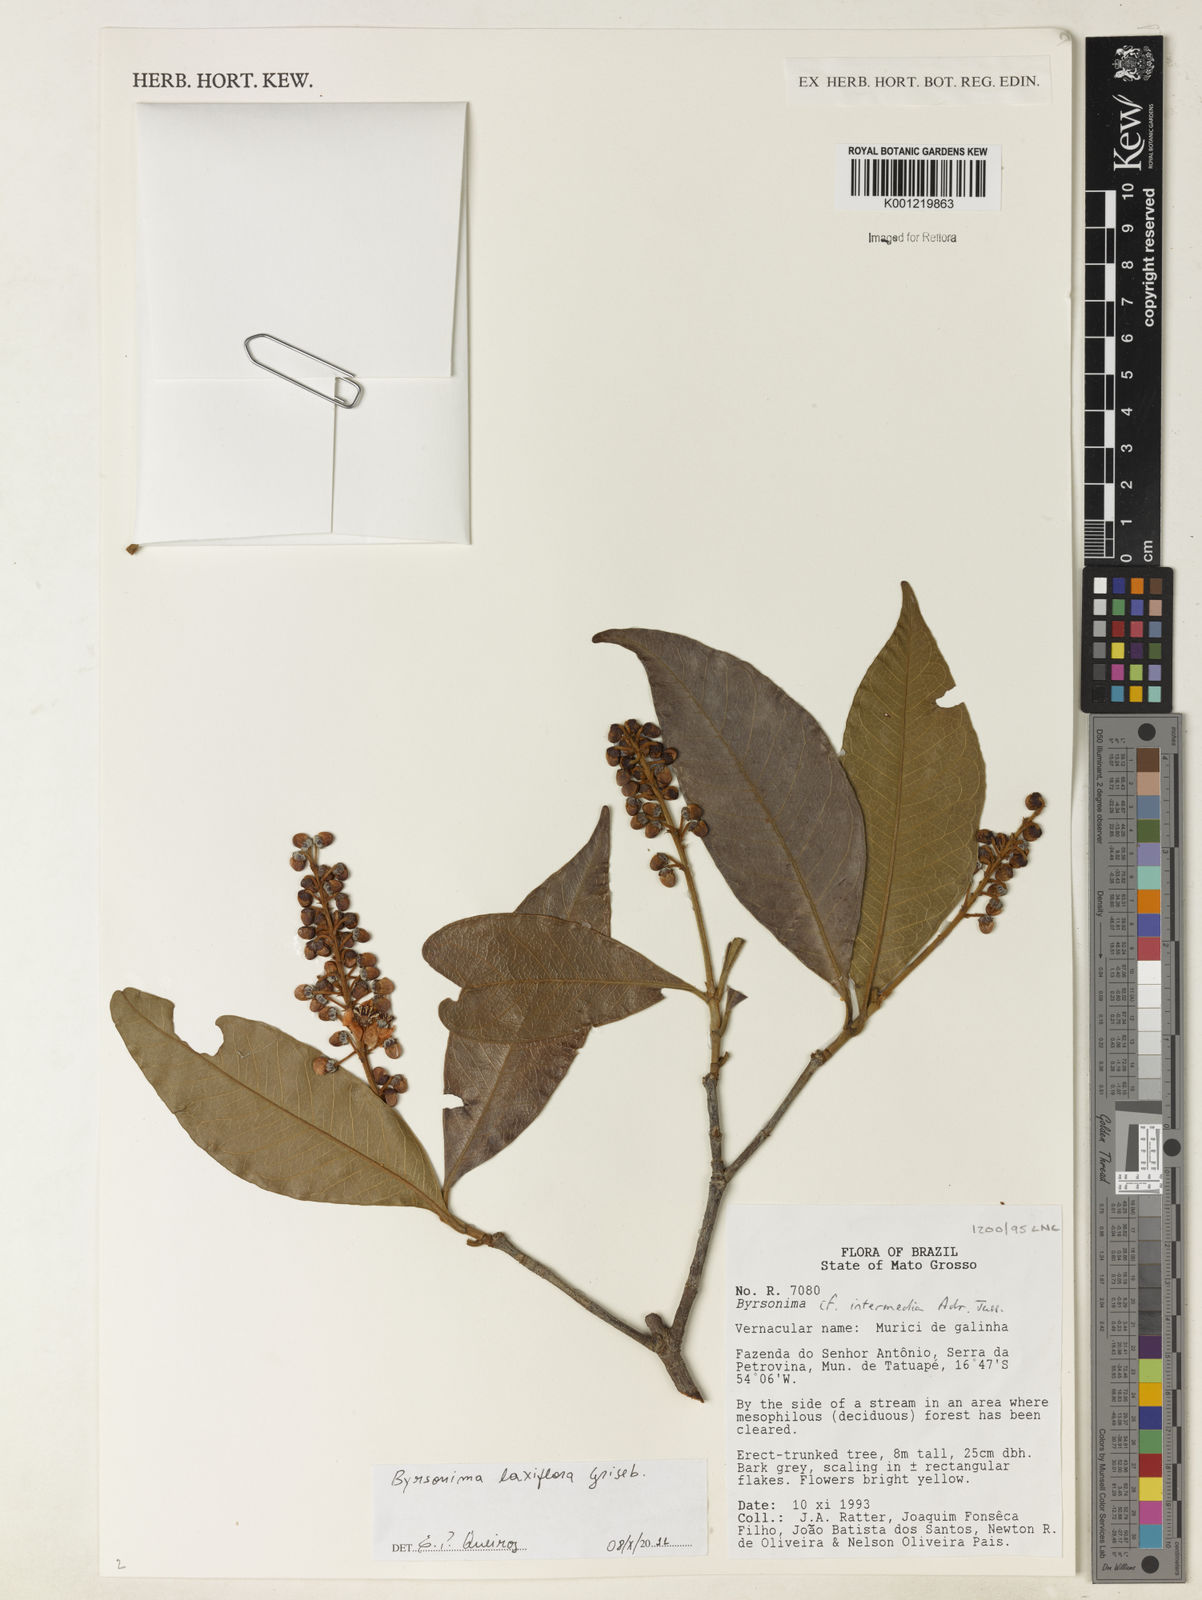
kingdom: Plantae
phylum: Tracheophyta
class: Magnoliopsida
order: Malpighiales
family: Malpighiaceae
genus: Byrsonima
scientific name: Byrsonima laxiflora
